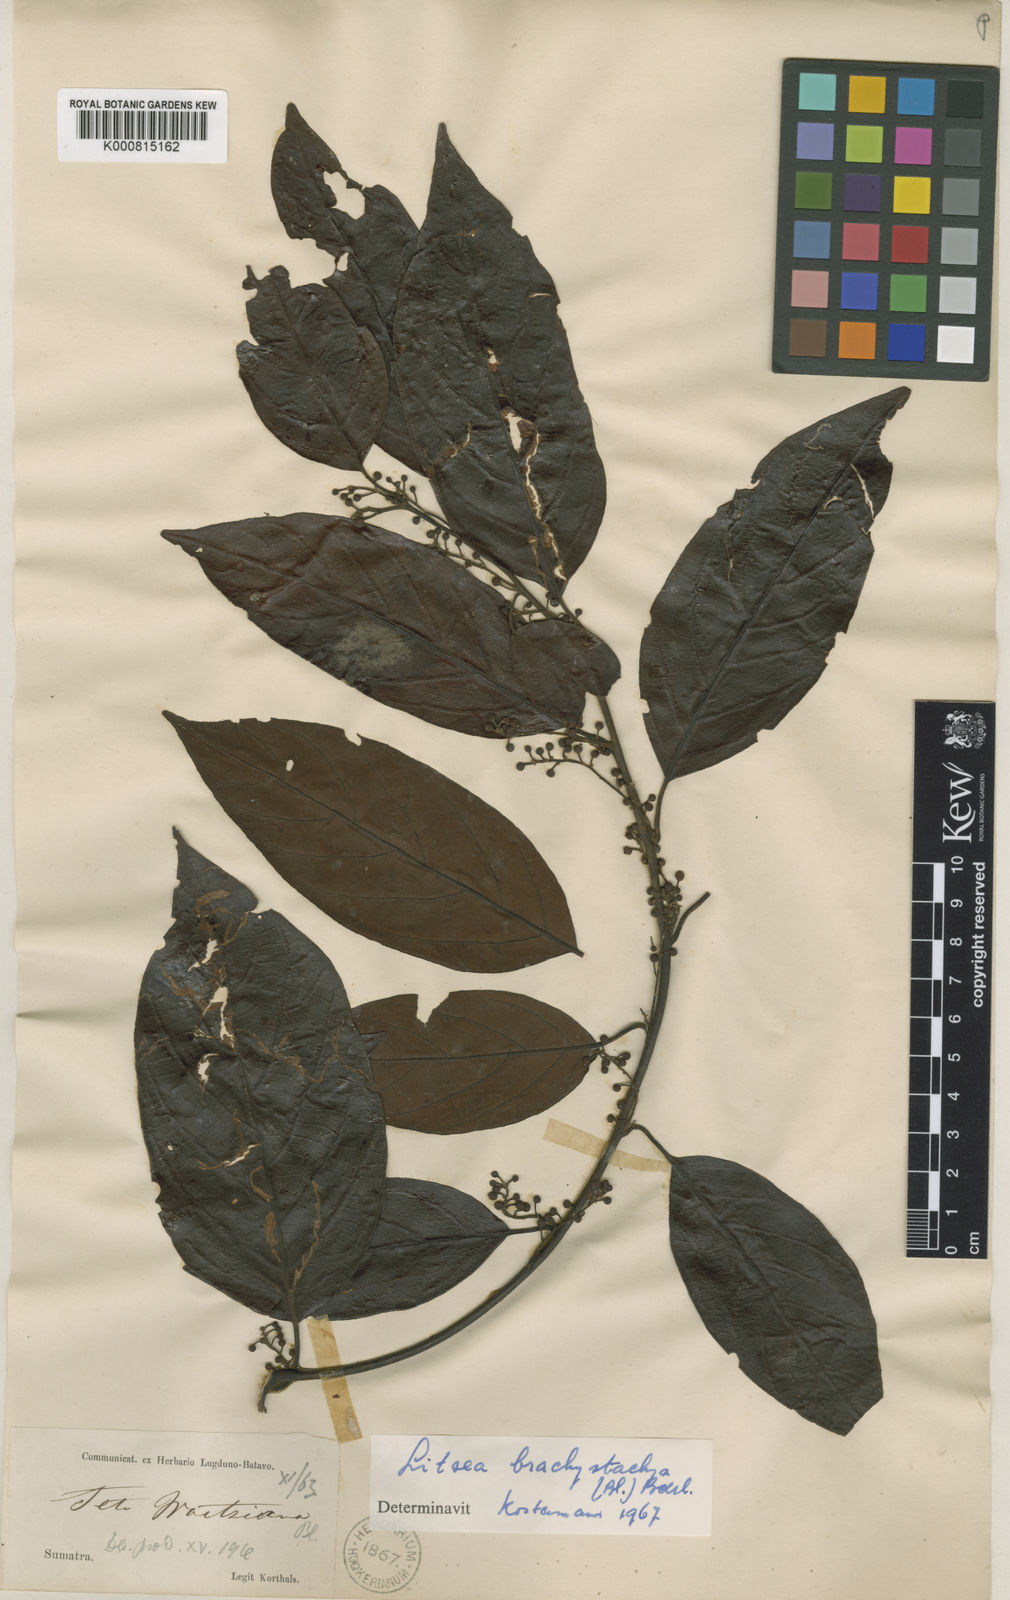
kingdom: Plantae
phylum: Tracheophyta
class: Magnoliopsida
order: Laurales
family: Lauraceae
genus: Litsea
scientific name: Litsea
